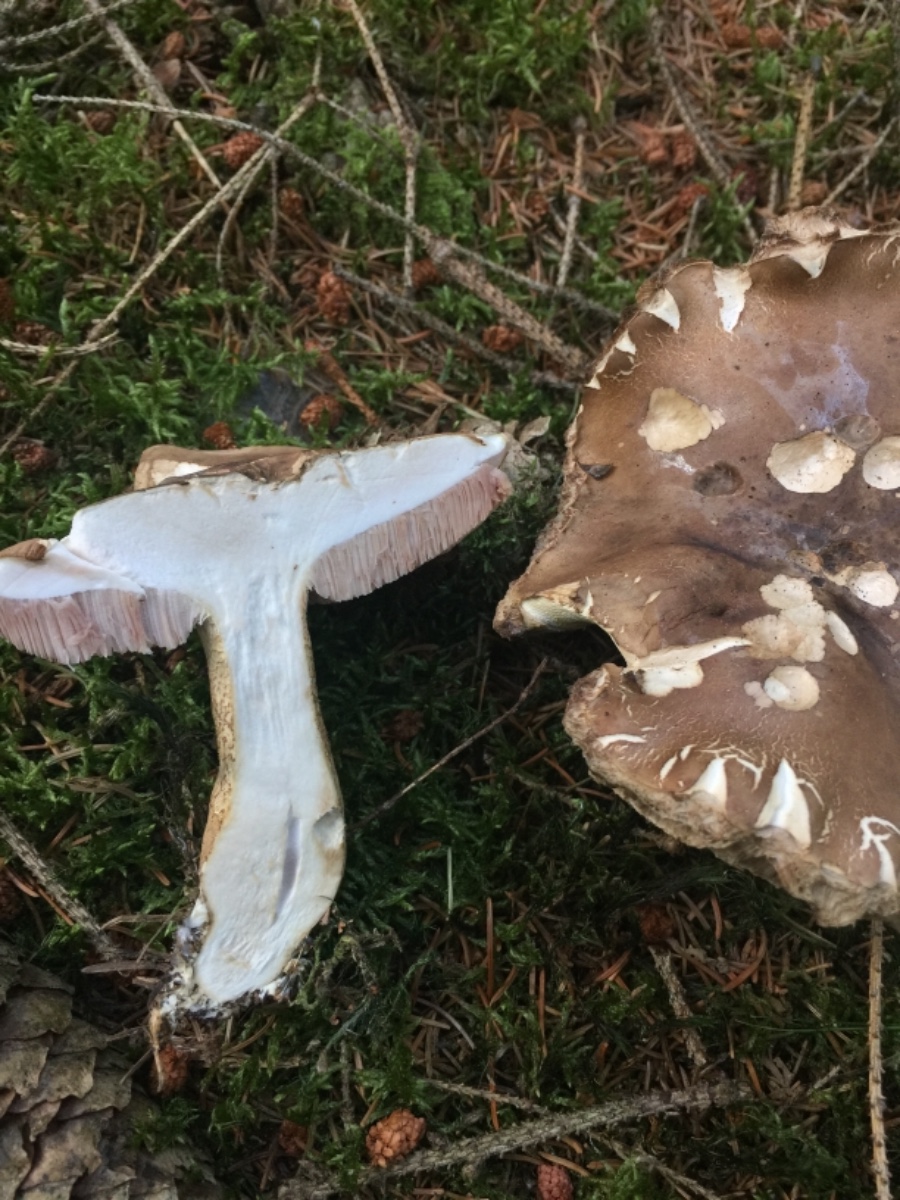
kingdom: Fungi
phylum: Basidiomycota
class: Agaricomycetes
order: Boletales
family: Boletaceae
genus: Tylopilus
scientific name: Tylopilus felleus
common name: galderørhat
